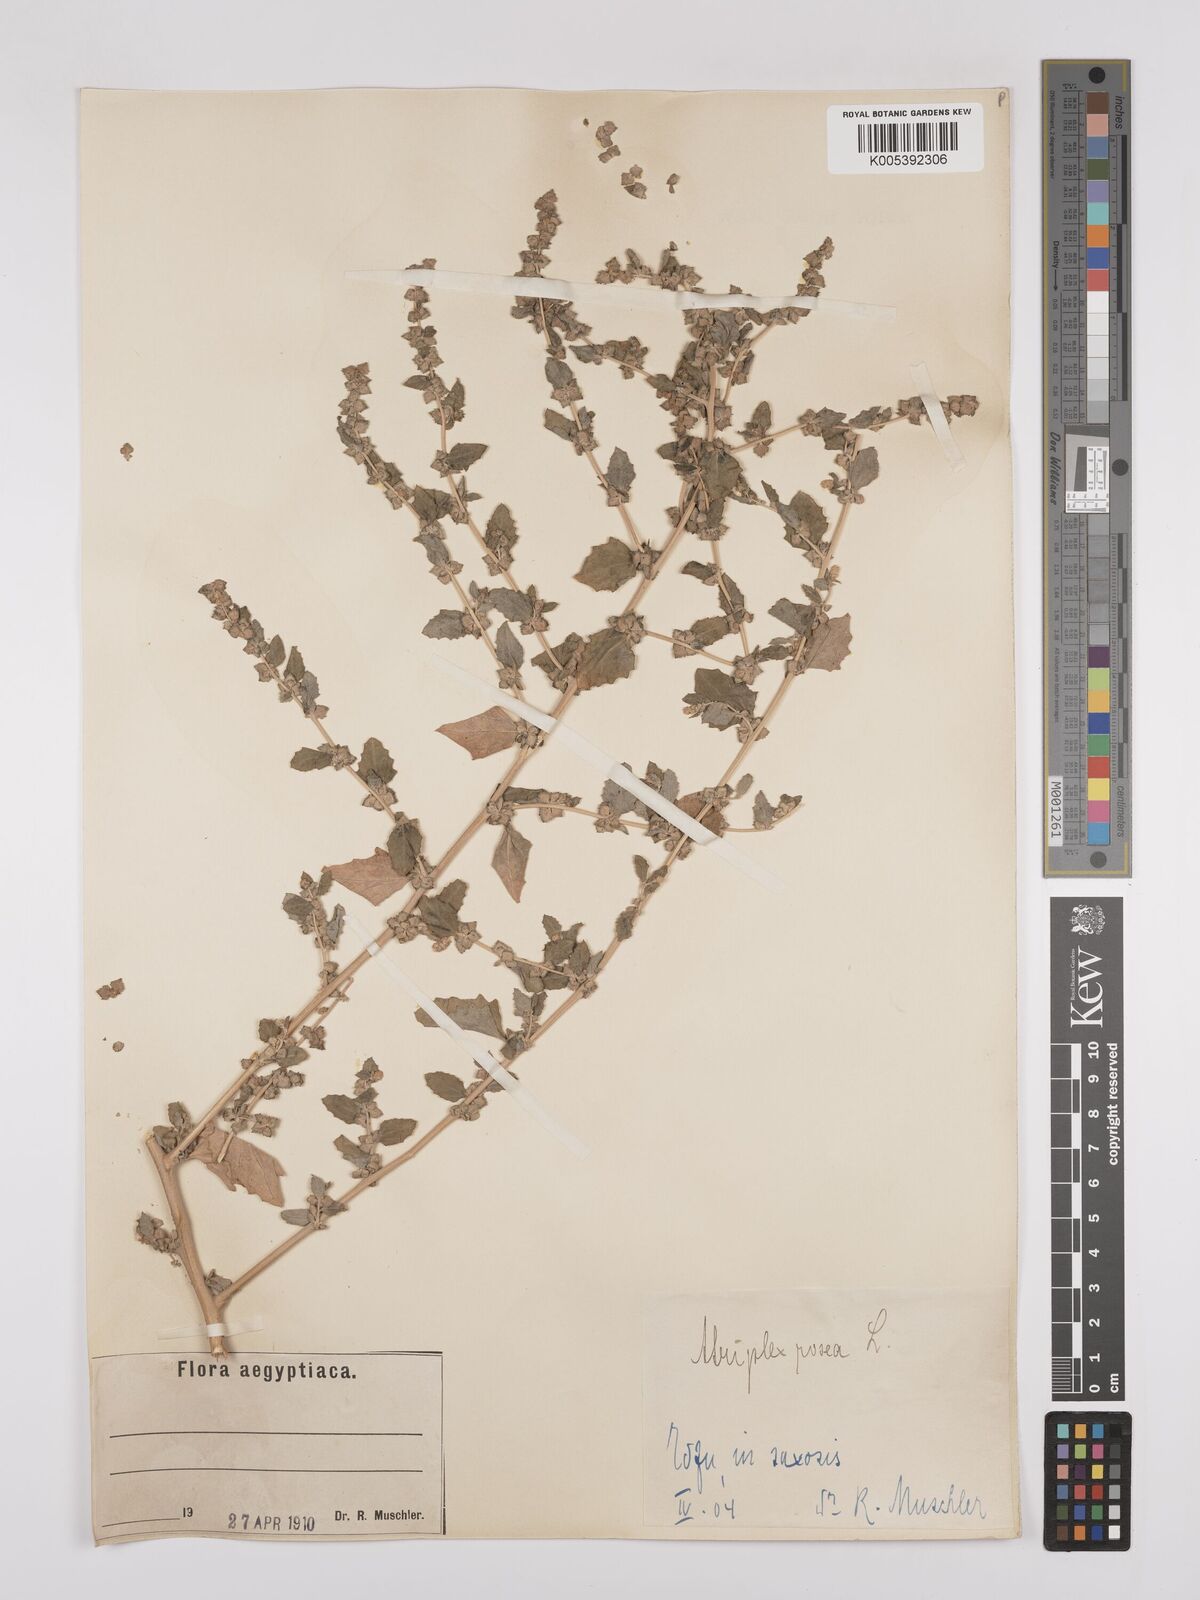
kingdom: Plantae
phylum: Tracheophyta
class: Magnoliopsida
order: Caryophyllales
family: Amaranthaceae
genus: Atriplex
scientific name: Atriplex
